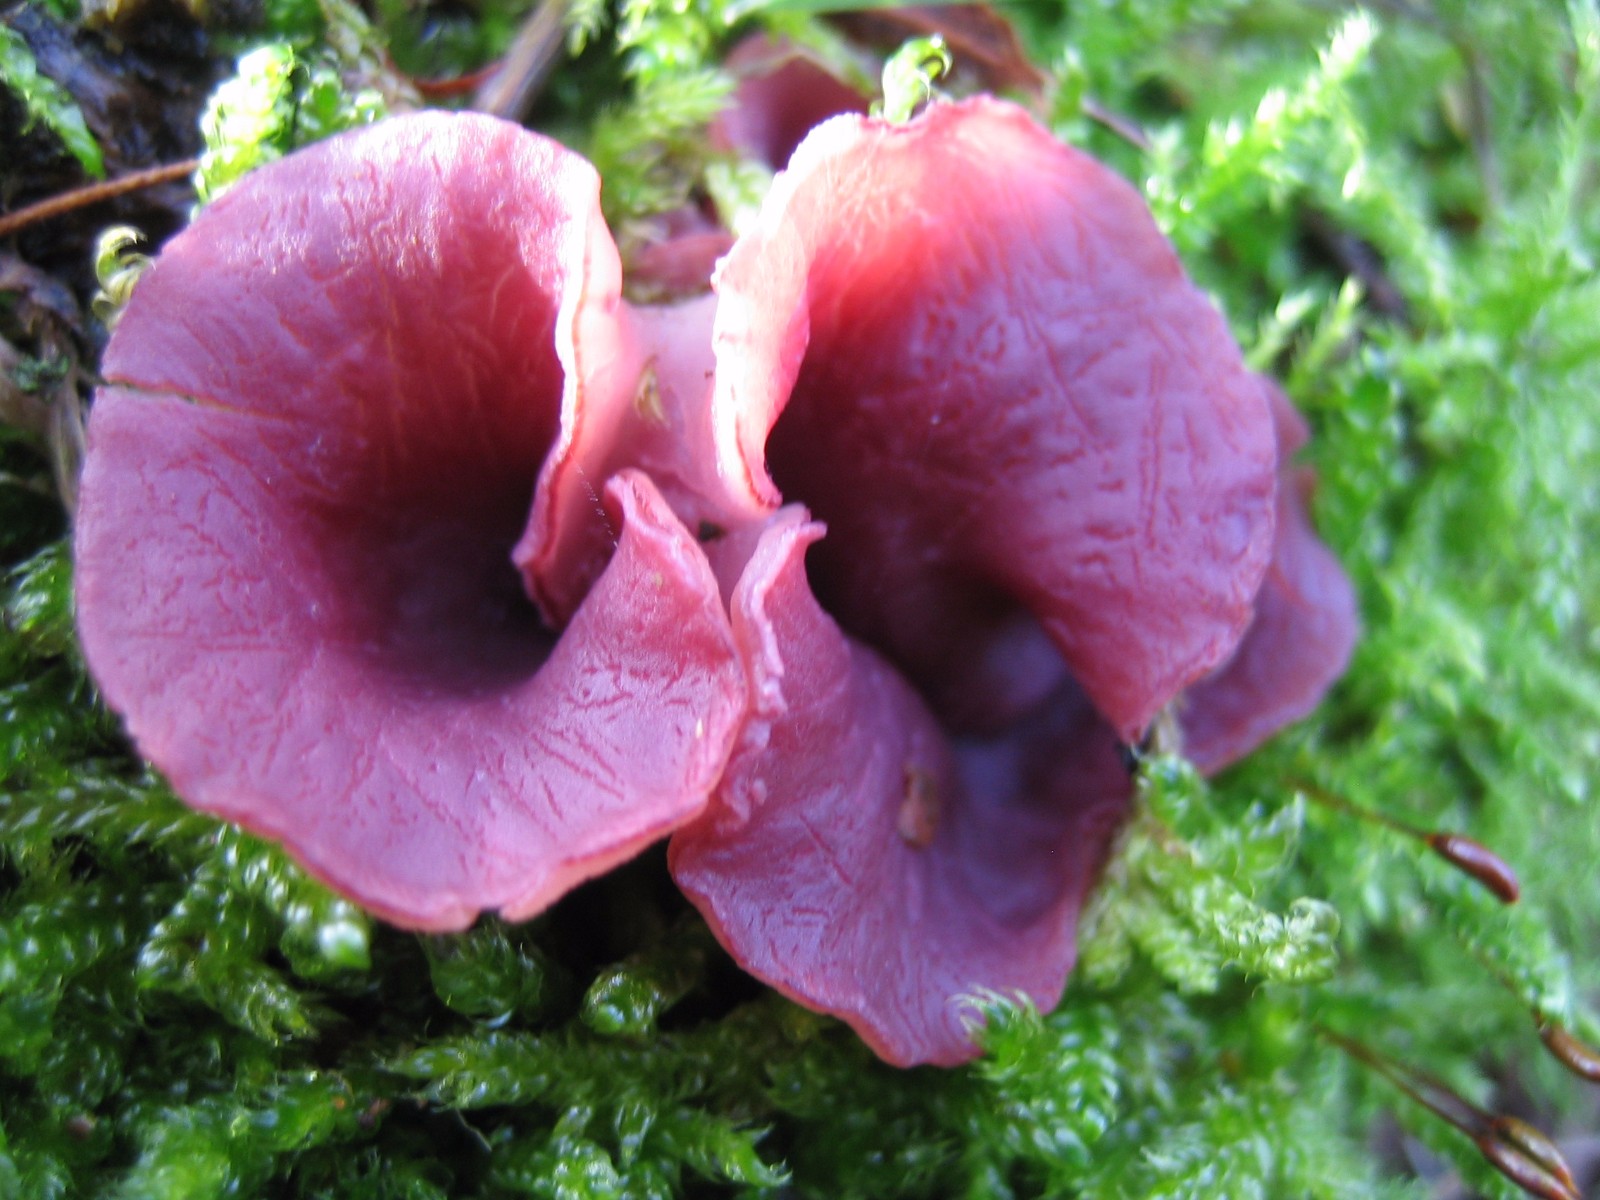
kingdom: Fungi
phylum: Ascomycota
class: Leotiomycetes
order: Helotiales
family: Gelatinodiscaceae
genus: Ascocoryne
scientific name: Ascocoryne cylichnium
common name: stor sejskive
